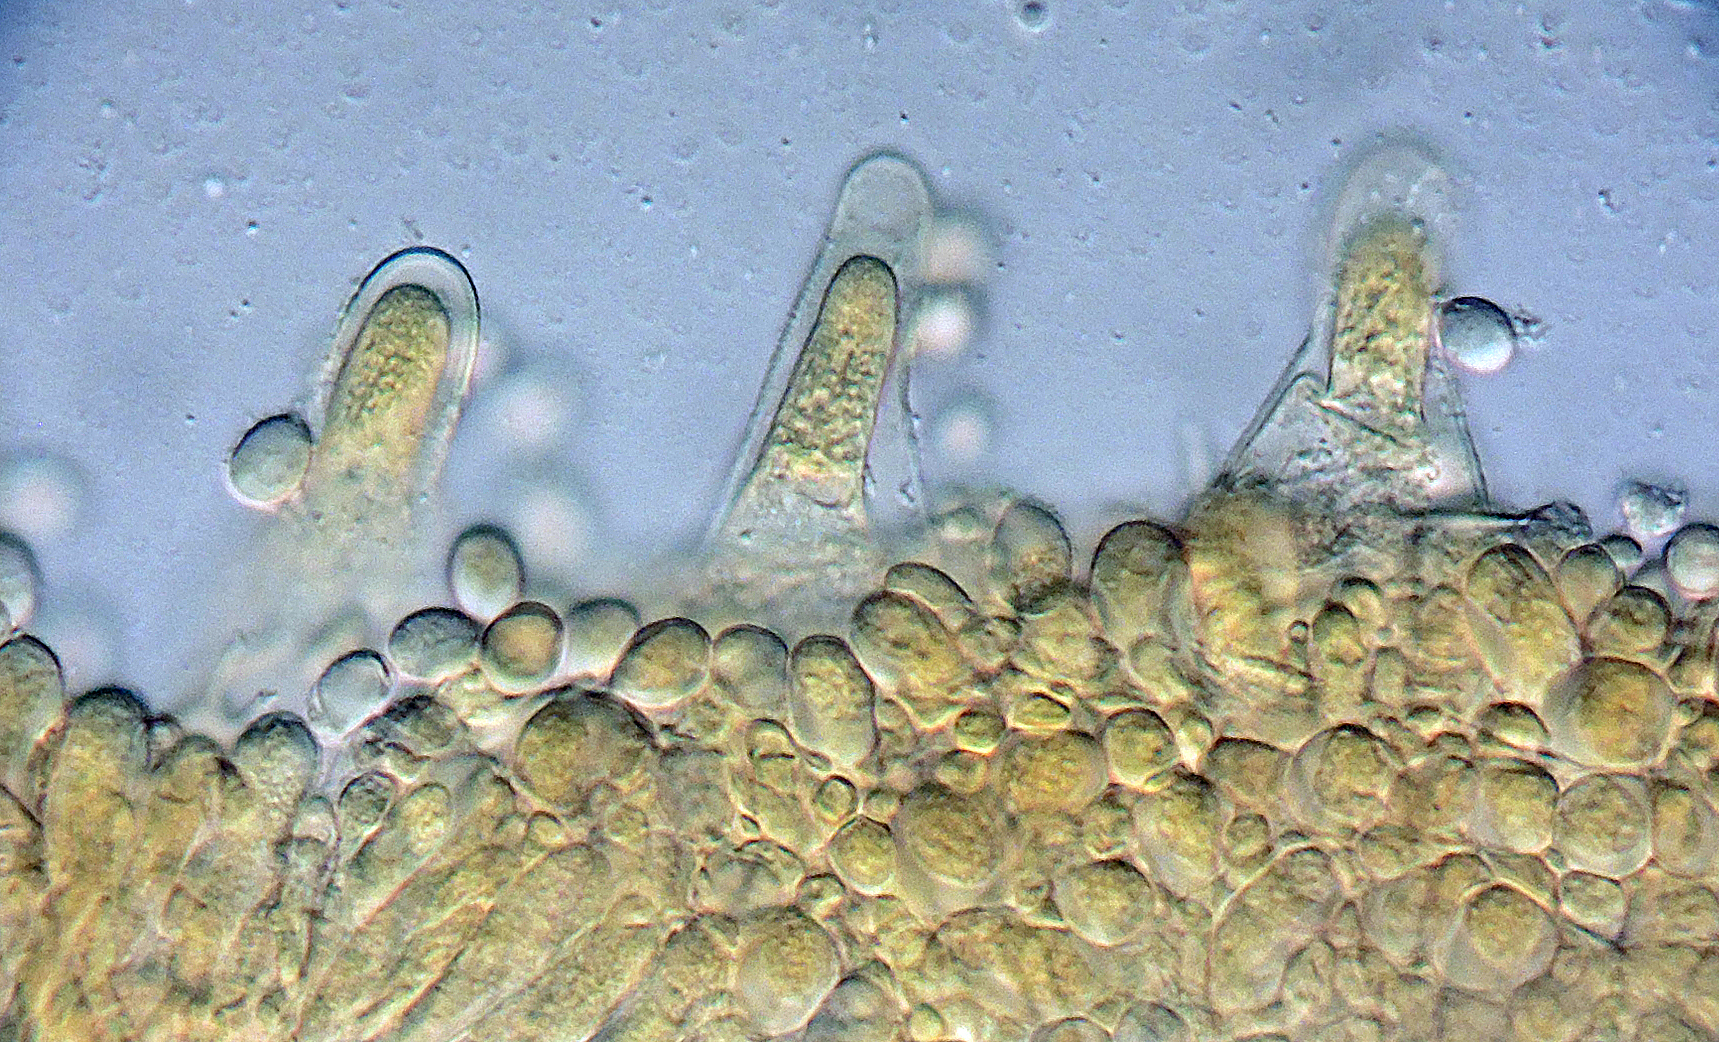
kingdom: Fungi
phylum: Basidiomycota
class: Agaricomycetes
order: Agaricales
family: Mycenaceae
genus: Mycopan
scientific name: Mycopan scabripes
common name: mørk fnugfod
